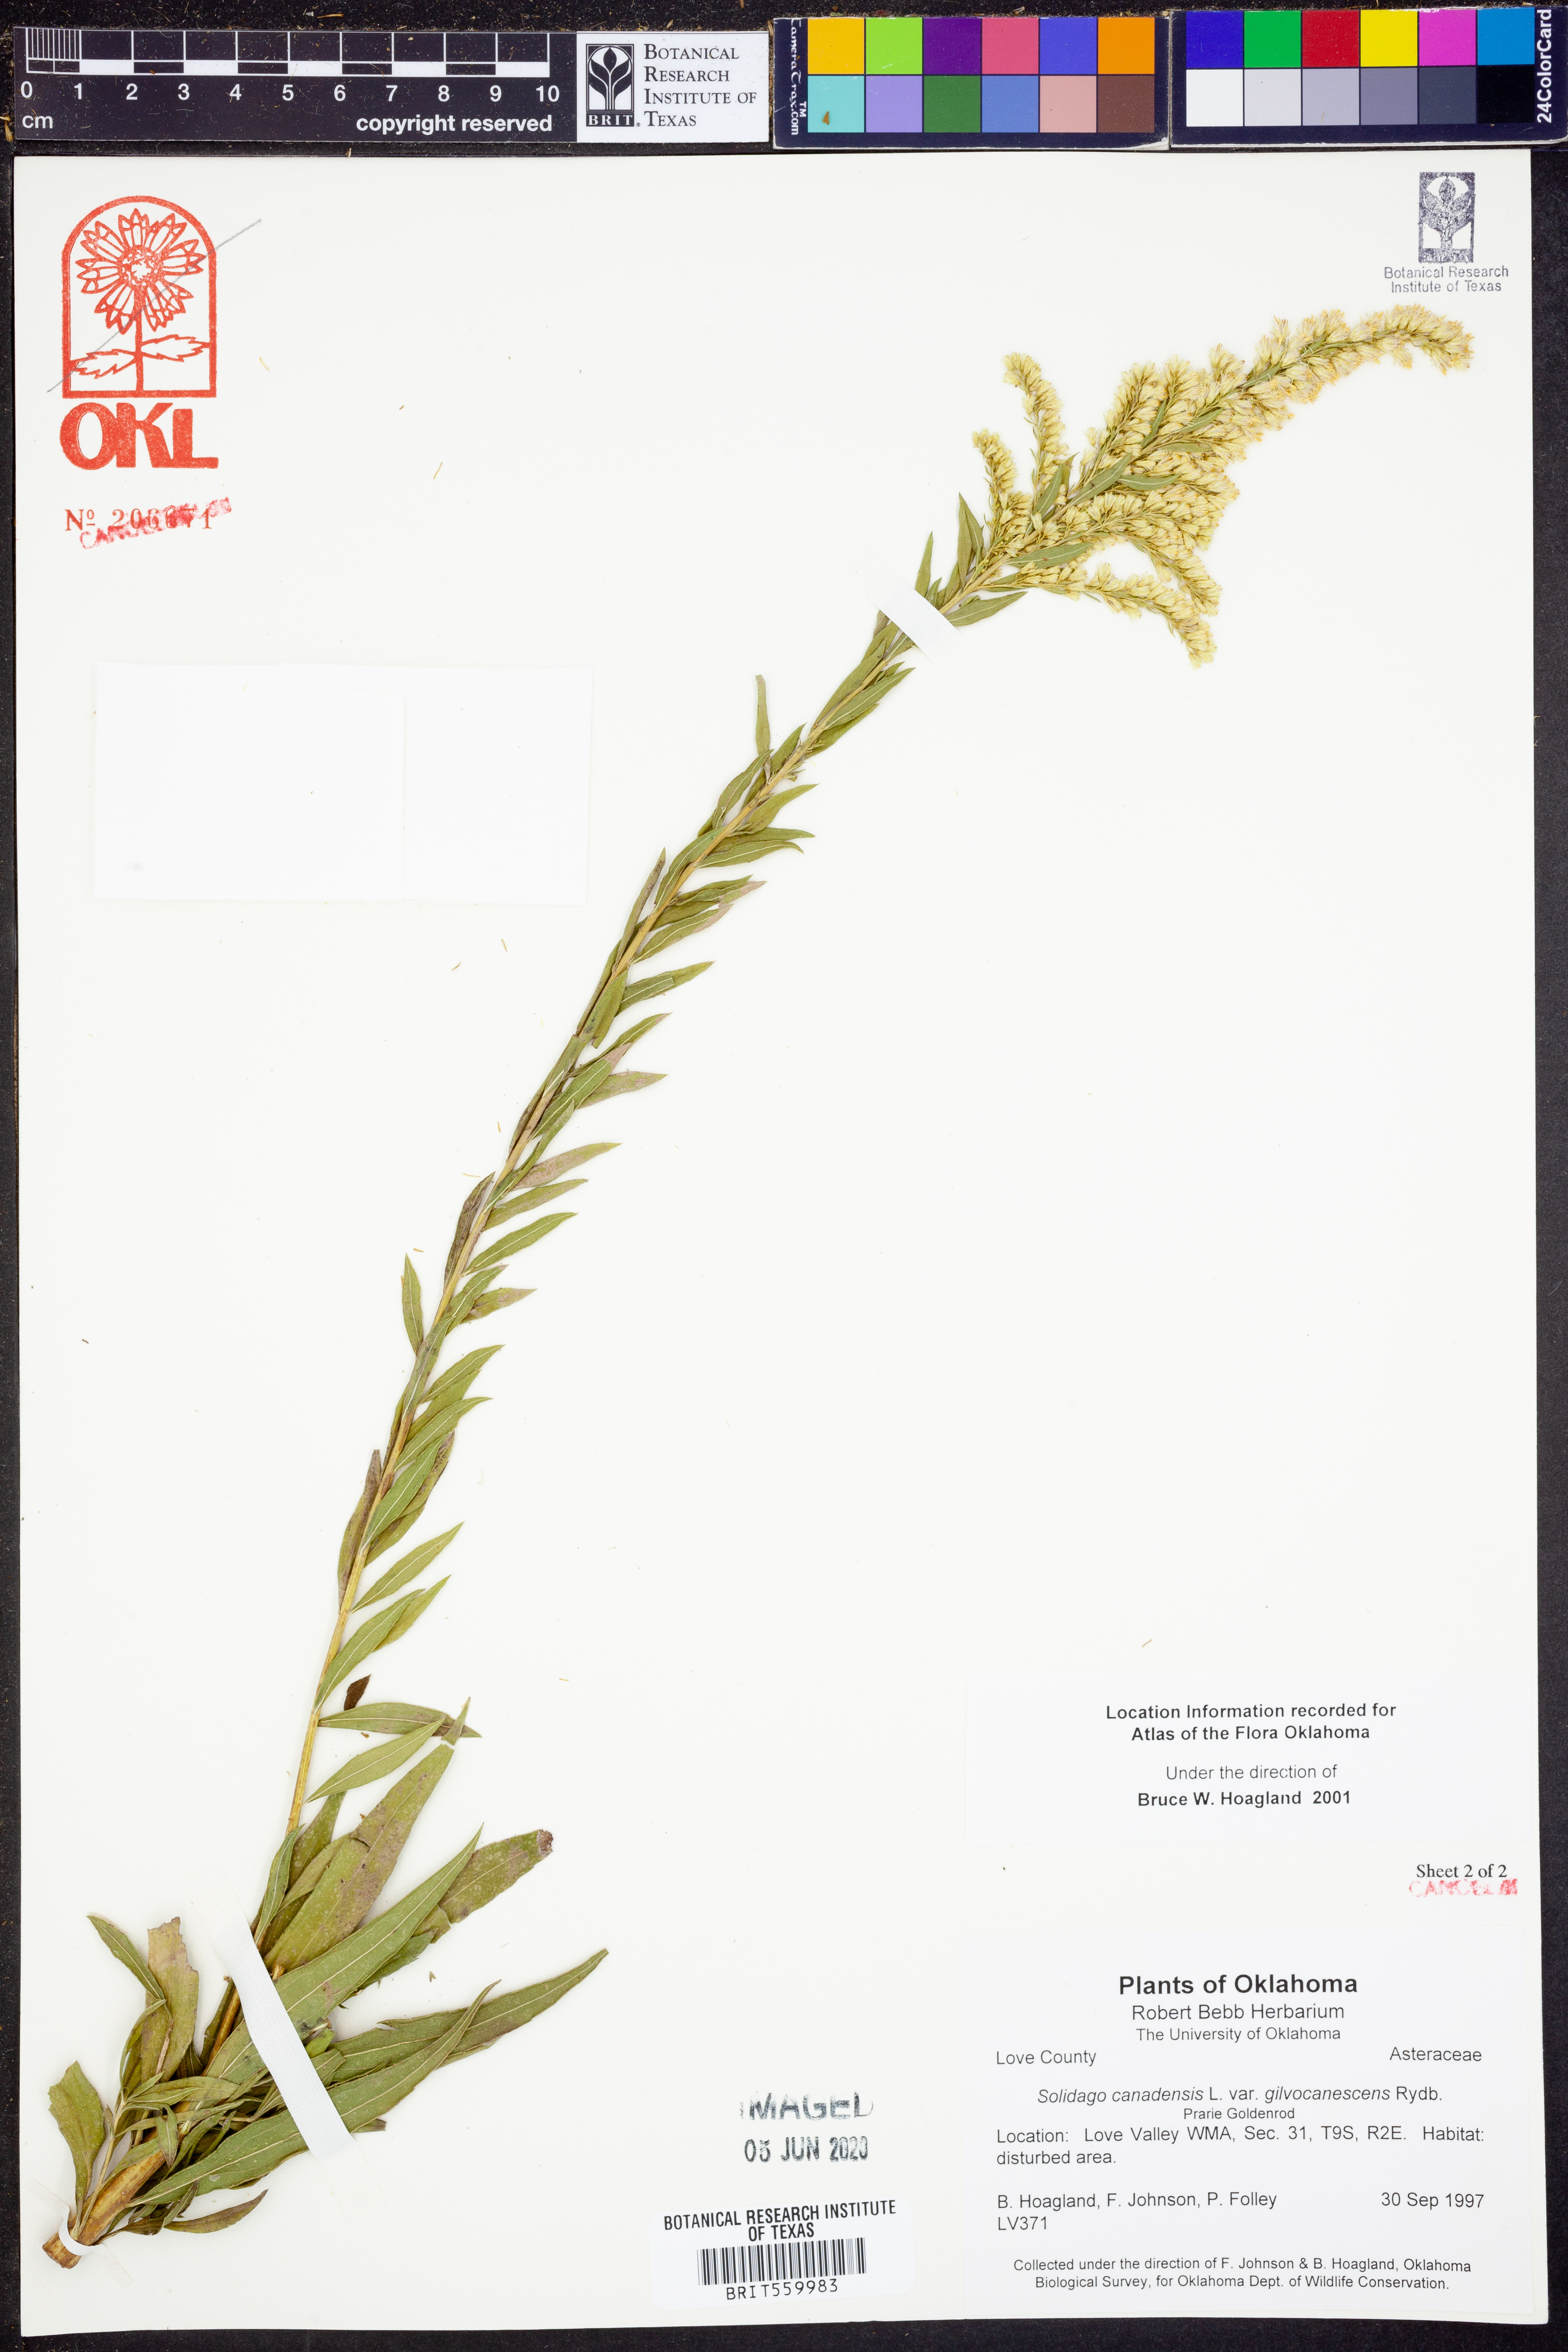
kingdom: Plantae
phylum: Tracheophyta
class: Magnoliopsida
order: Asterales
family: Asteraceae
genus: Solidago
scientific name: Solidago altissima
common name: Late goldenrod
